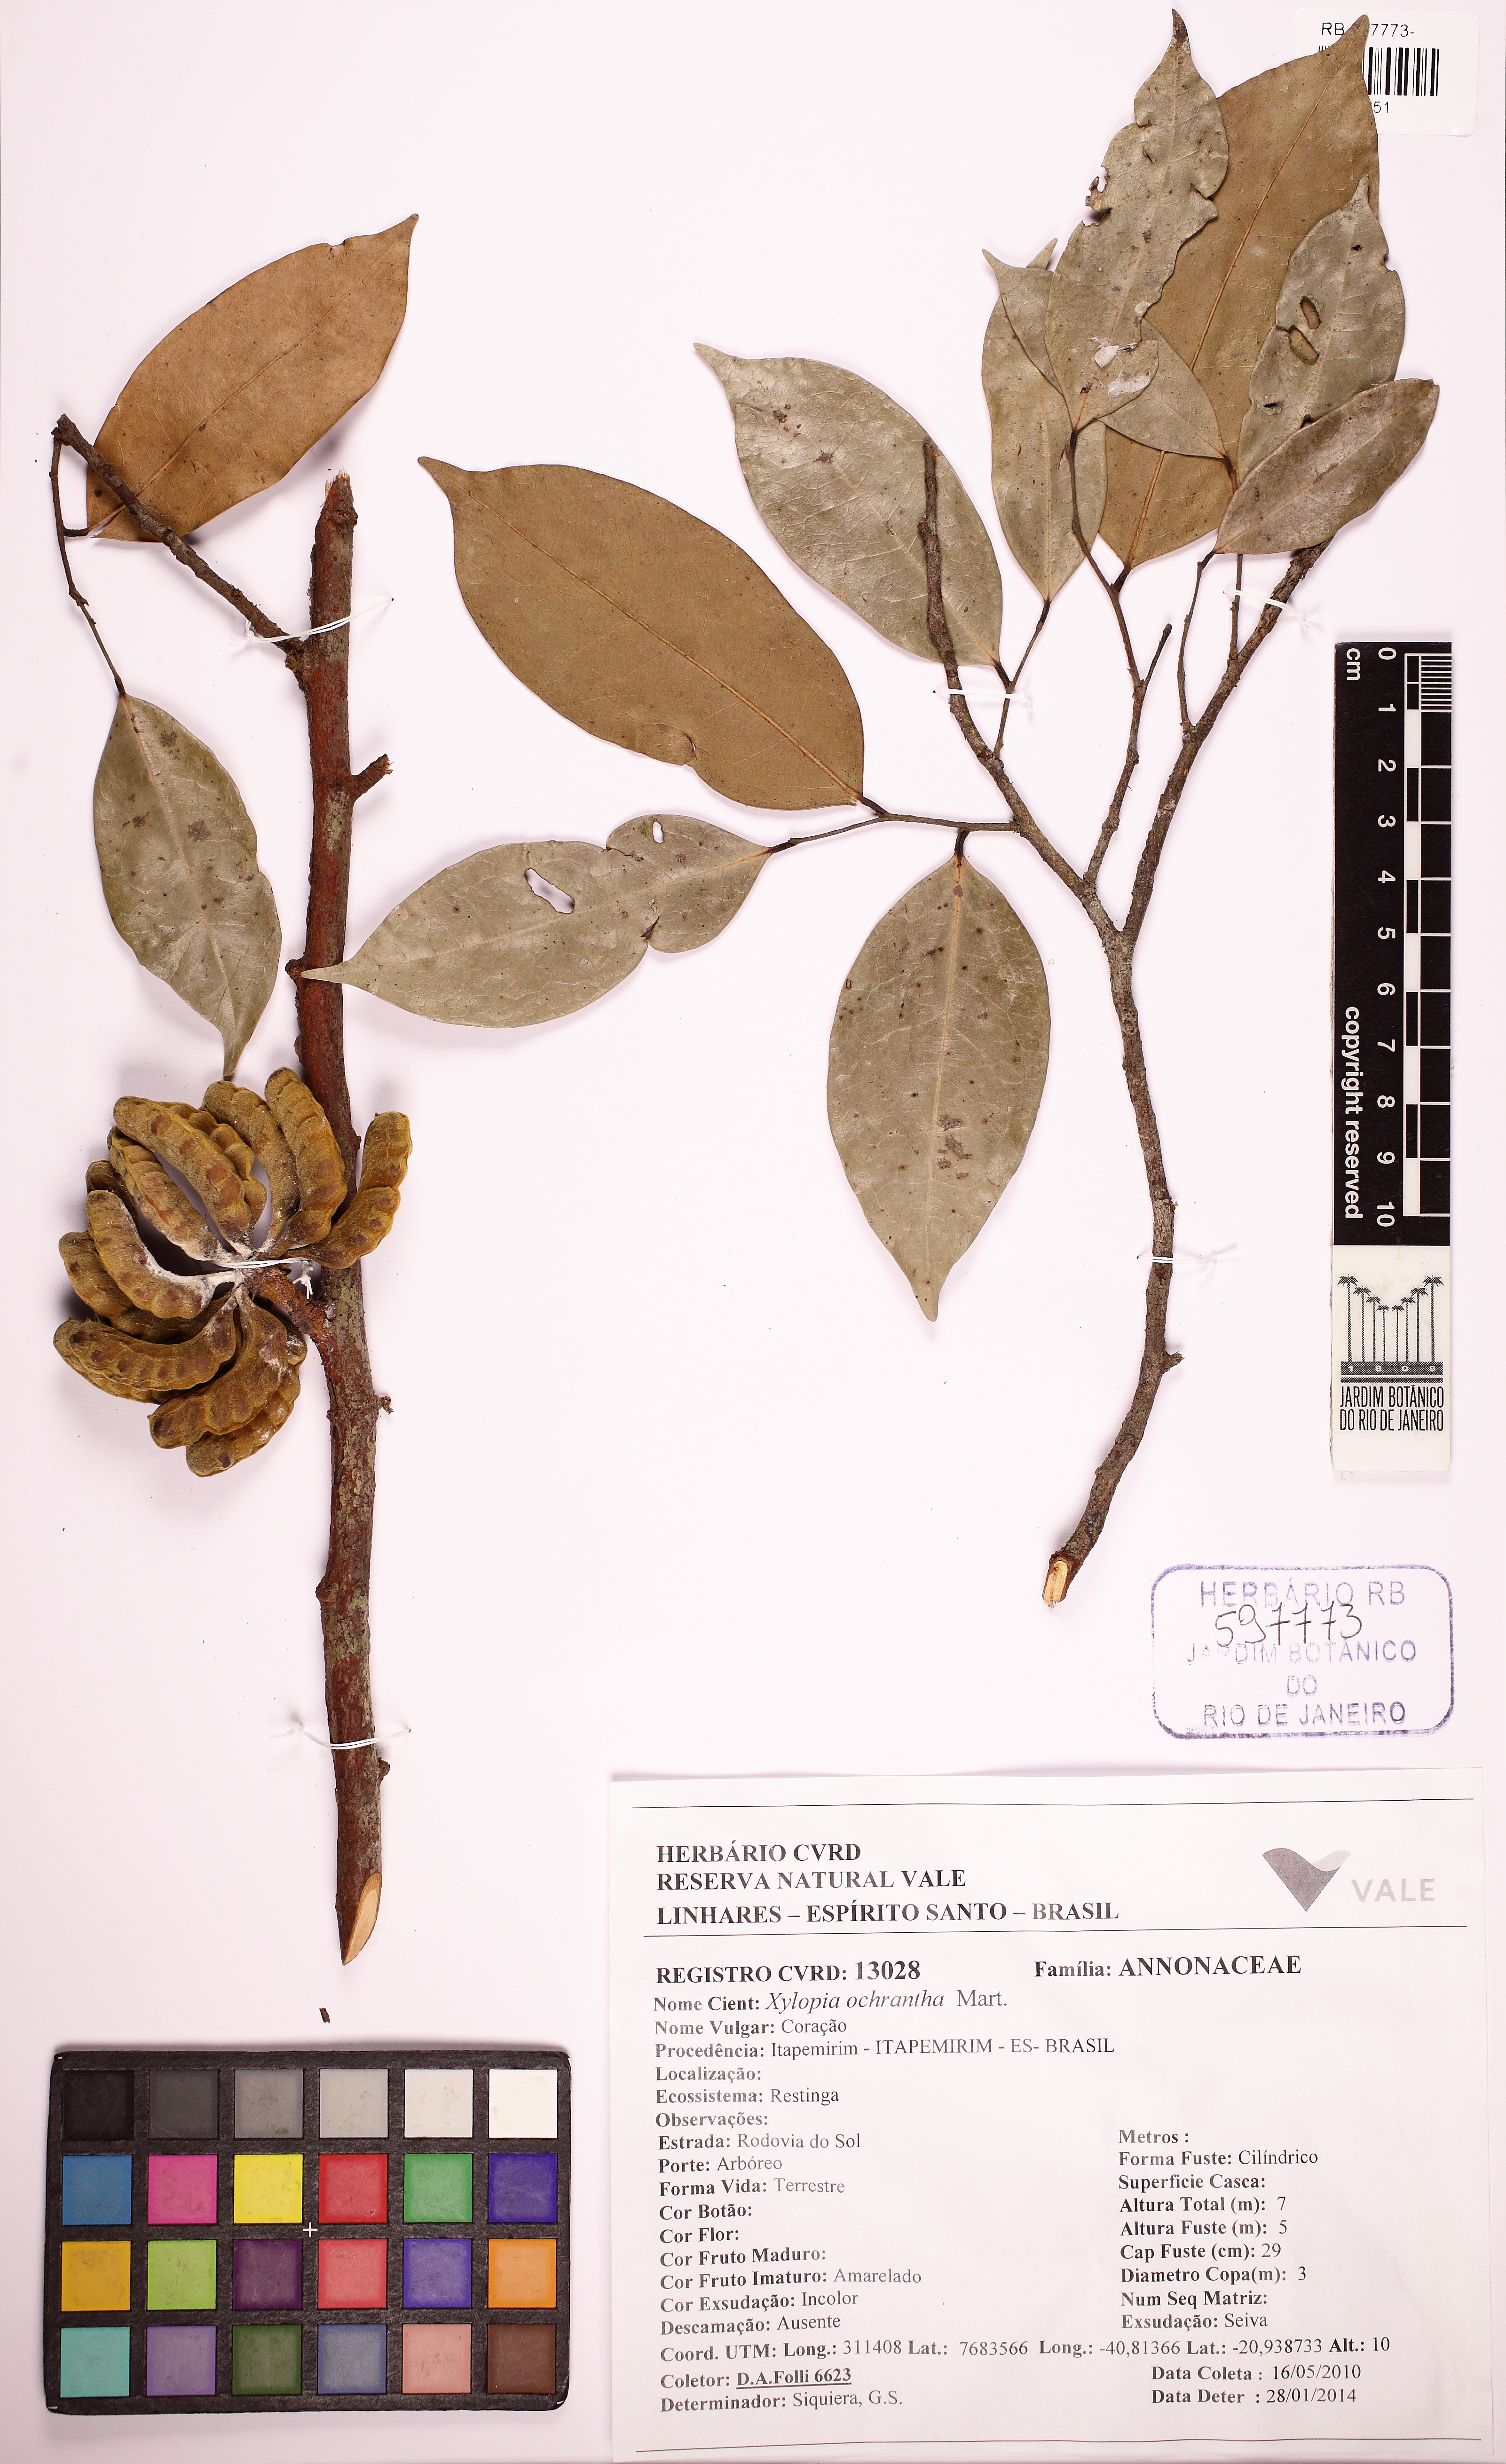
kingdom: Plantae
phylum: Tracheophyta
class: Magnoliopsida
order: Magnoliales
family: Annonaceae
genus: Xylopia
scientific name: Xylopia ochrantha
